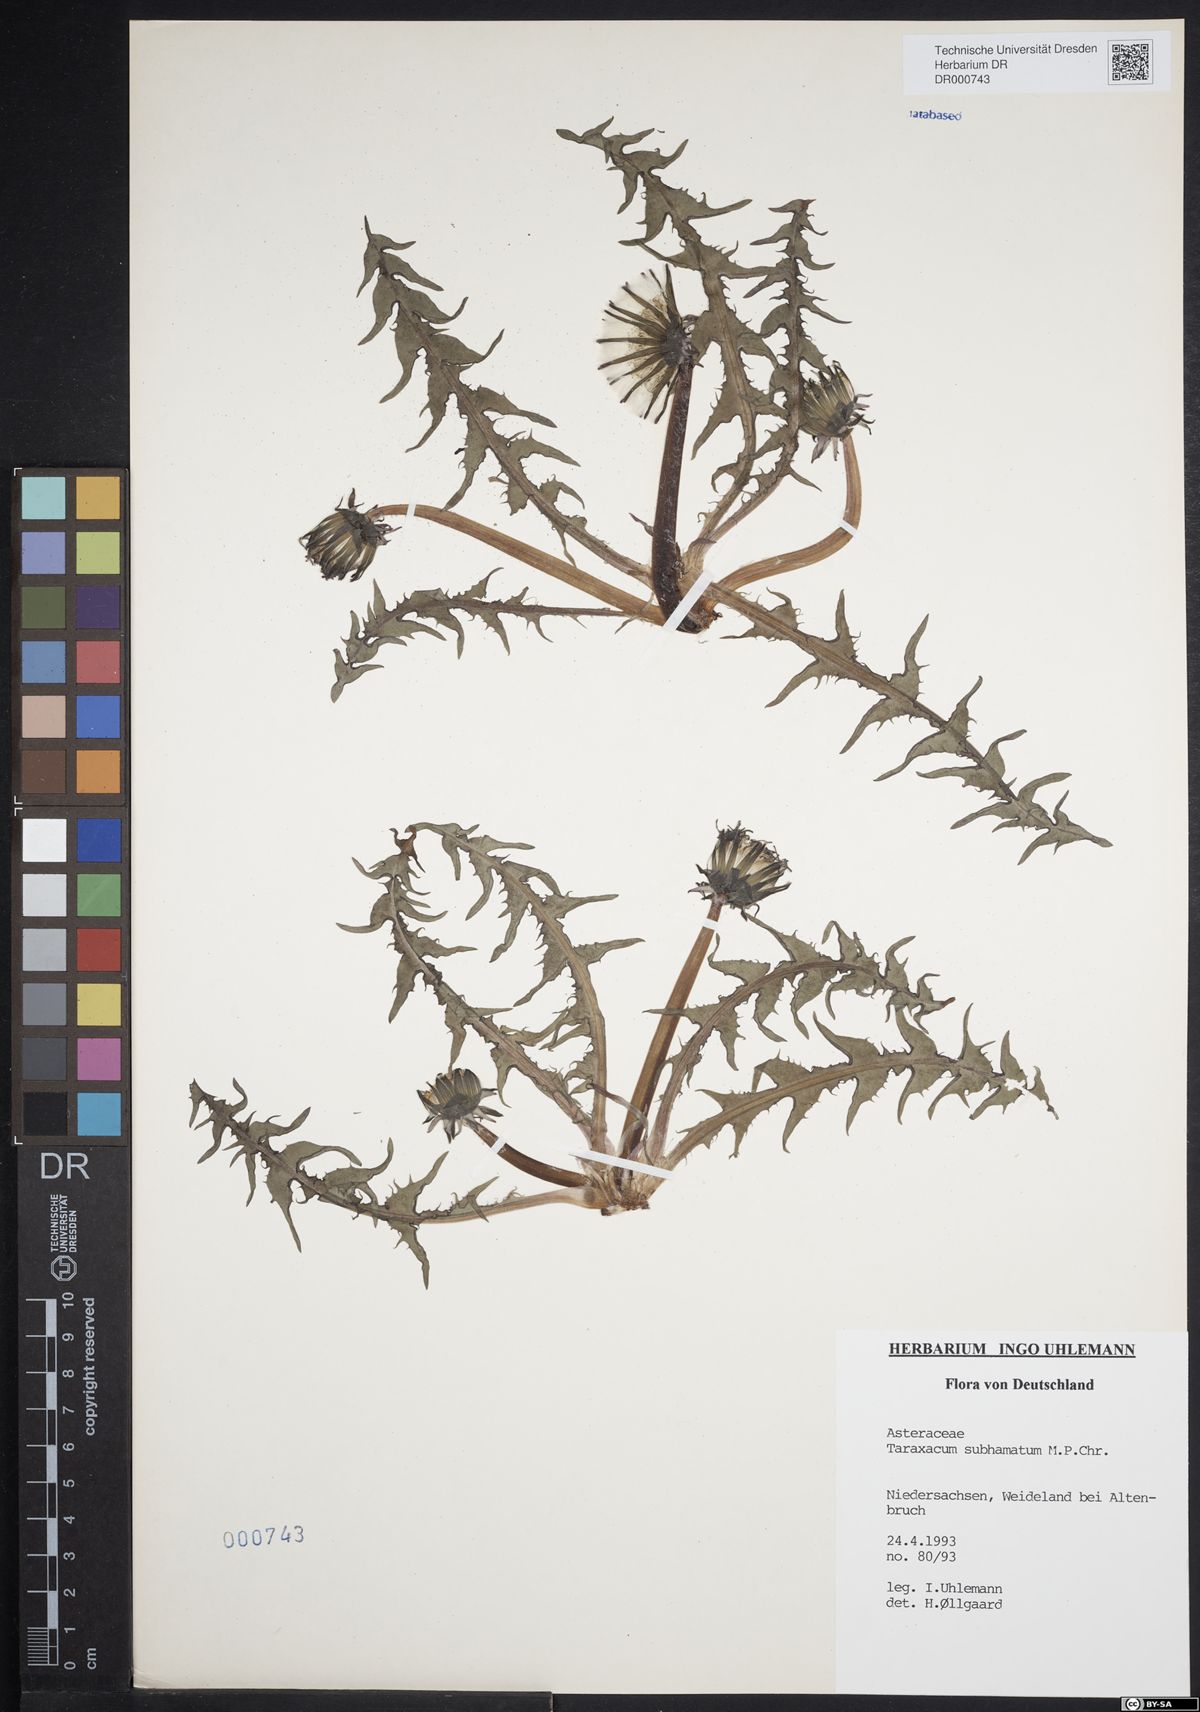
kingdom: Plantae
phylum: Tracheophyta
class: Magnoliopsida
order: Asterales
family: Asteraceae
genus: Taraxacum
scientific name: Taraxacum subhamatum
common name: Large hook-lobed dandelion
